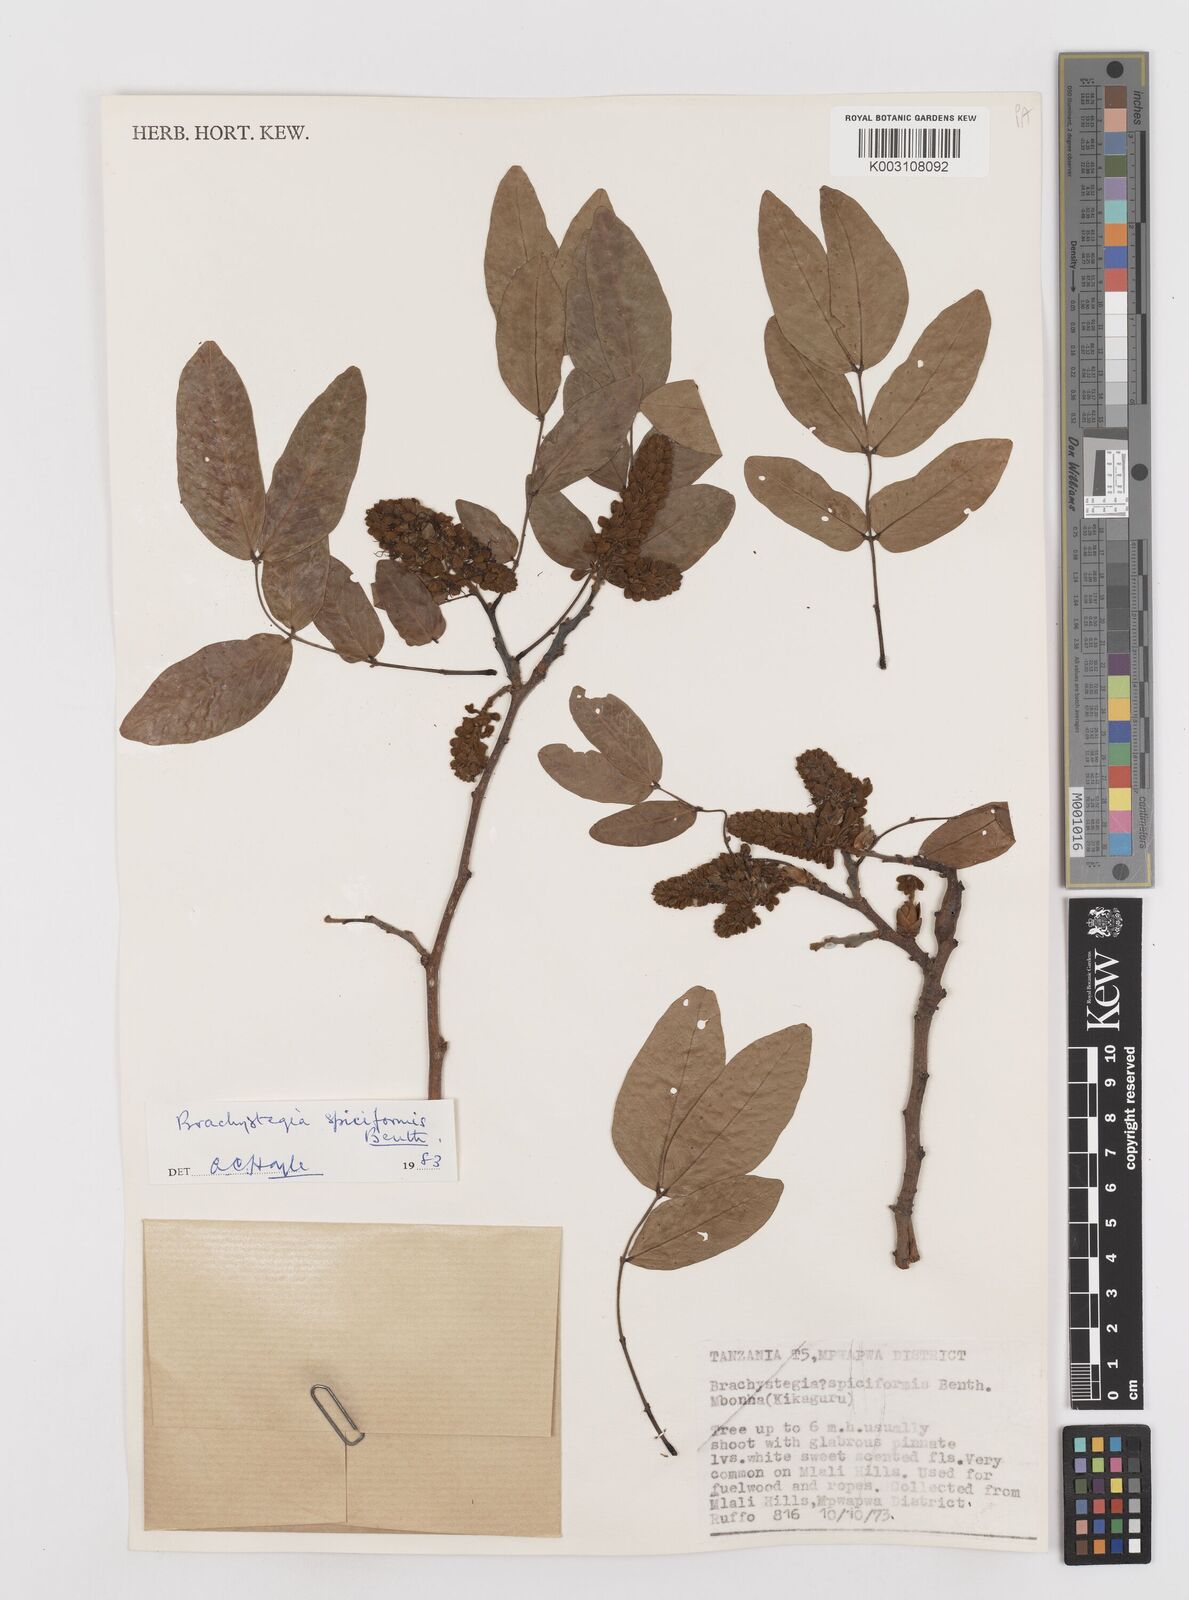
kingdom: Plantae
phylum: Tracheophyta
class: Magnoliopsida
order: Fabales
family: Fabaceae
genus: Brachystegia
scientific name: Brachystegia spiciformis
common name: Zebrawood
